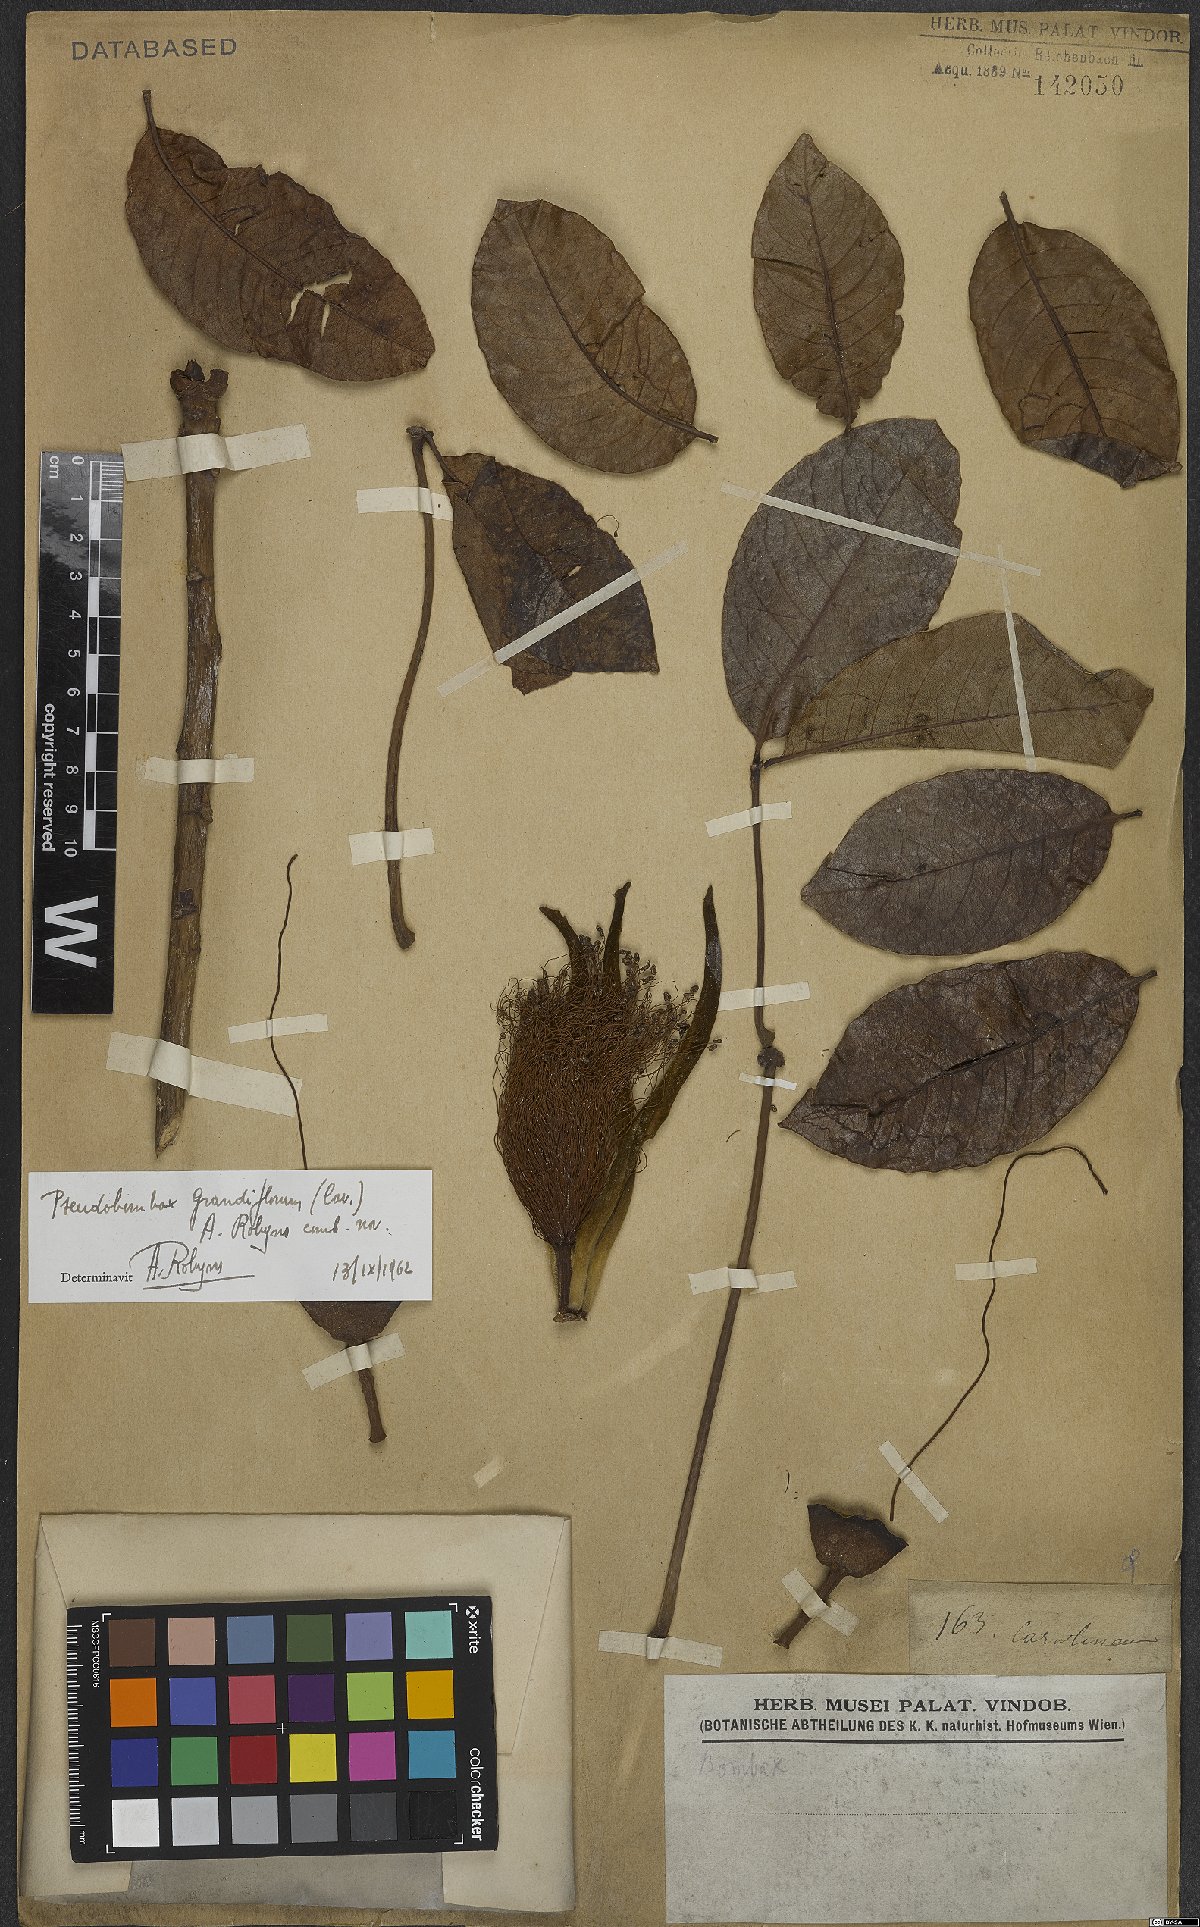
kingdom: Plantae
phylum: Tracheophyta
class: Magnoliopsida
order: Malvales
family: Malvaceae
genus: Pseudobombax
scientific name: Pseudobombax grandiflorum
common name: Brazilian shaving-brush-tree
